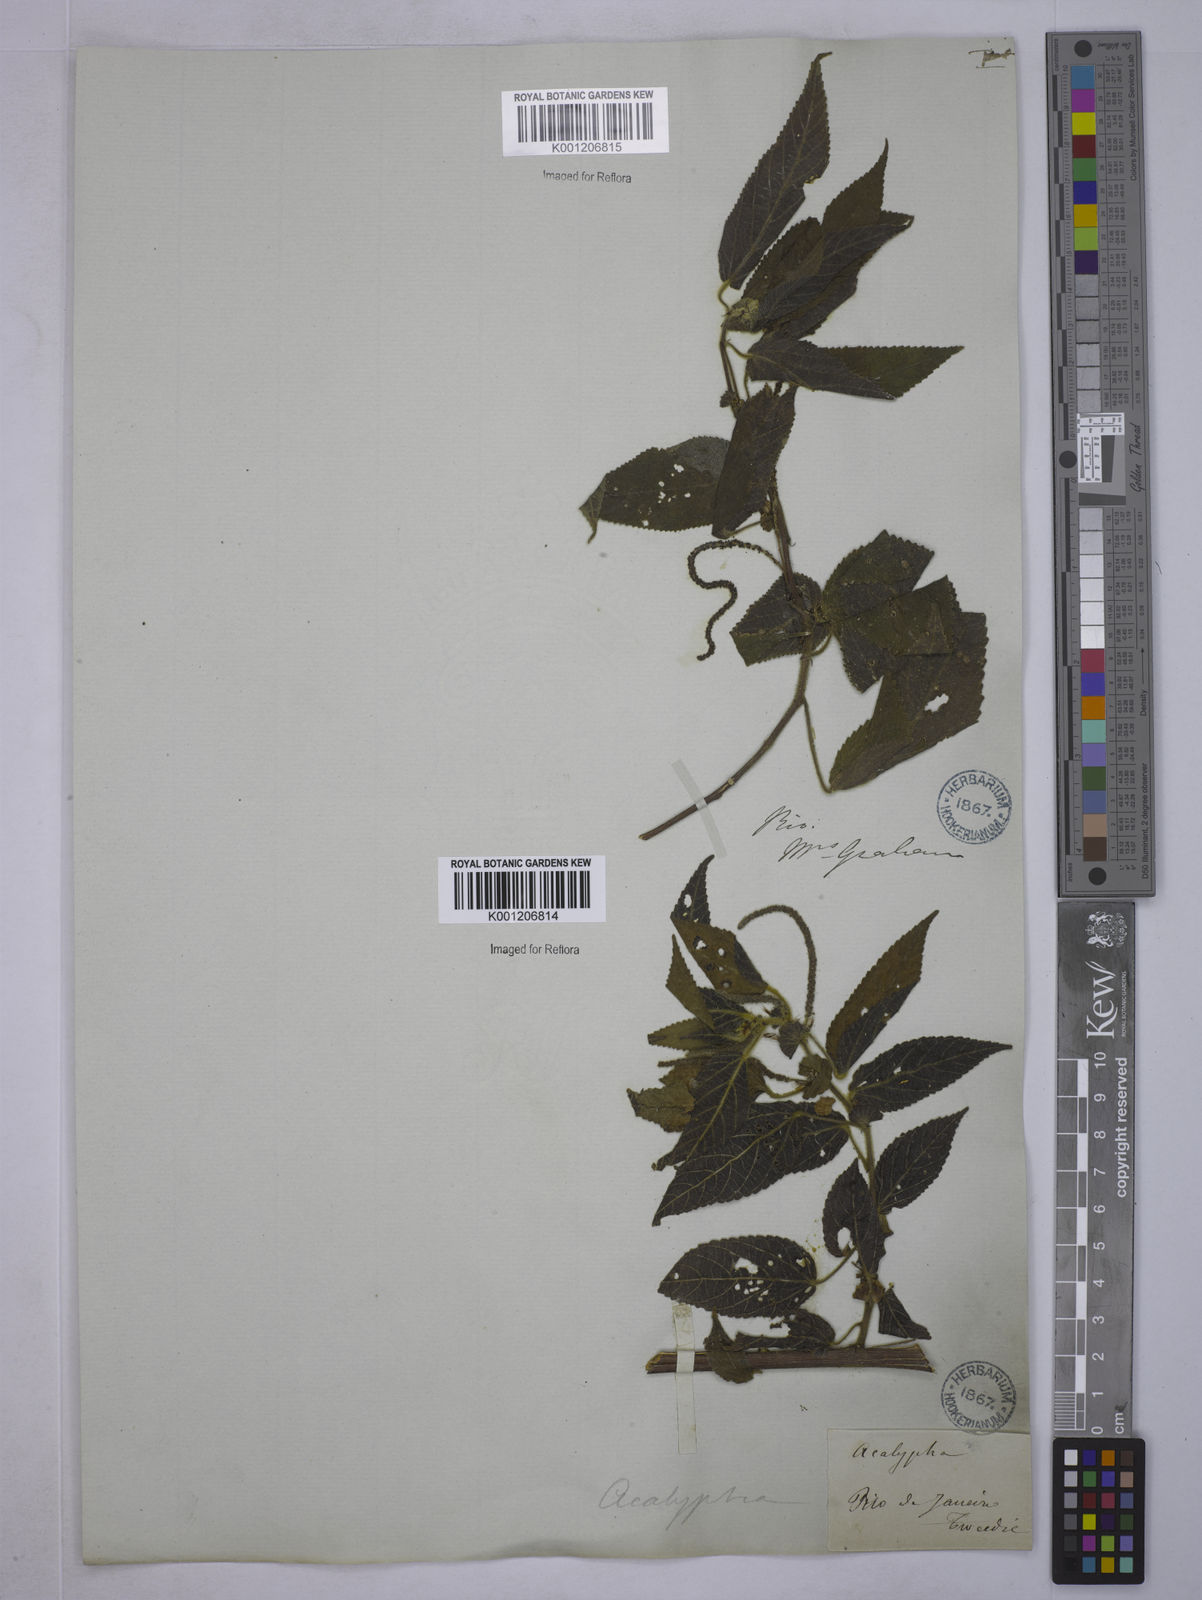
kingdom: Plantae
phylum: Tracheophyta
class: Magnoliopsida
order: Malpighiales
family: Euphorbiaceae
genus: Acalypha
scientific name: Acalypha
